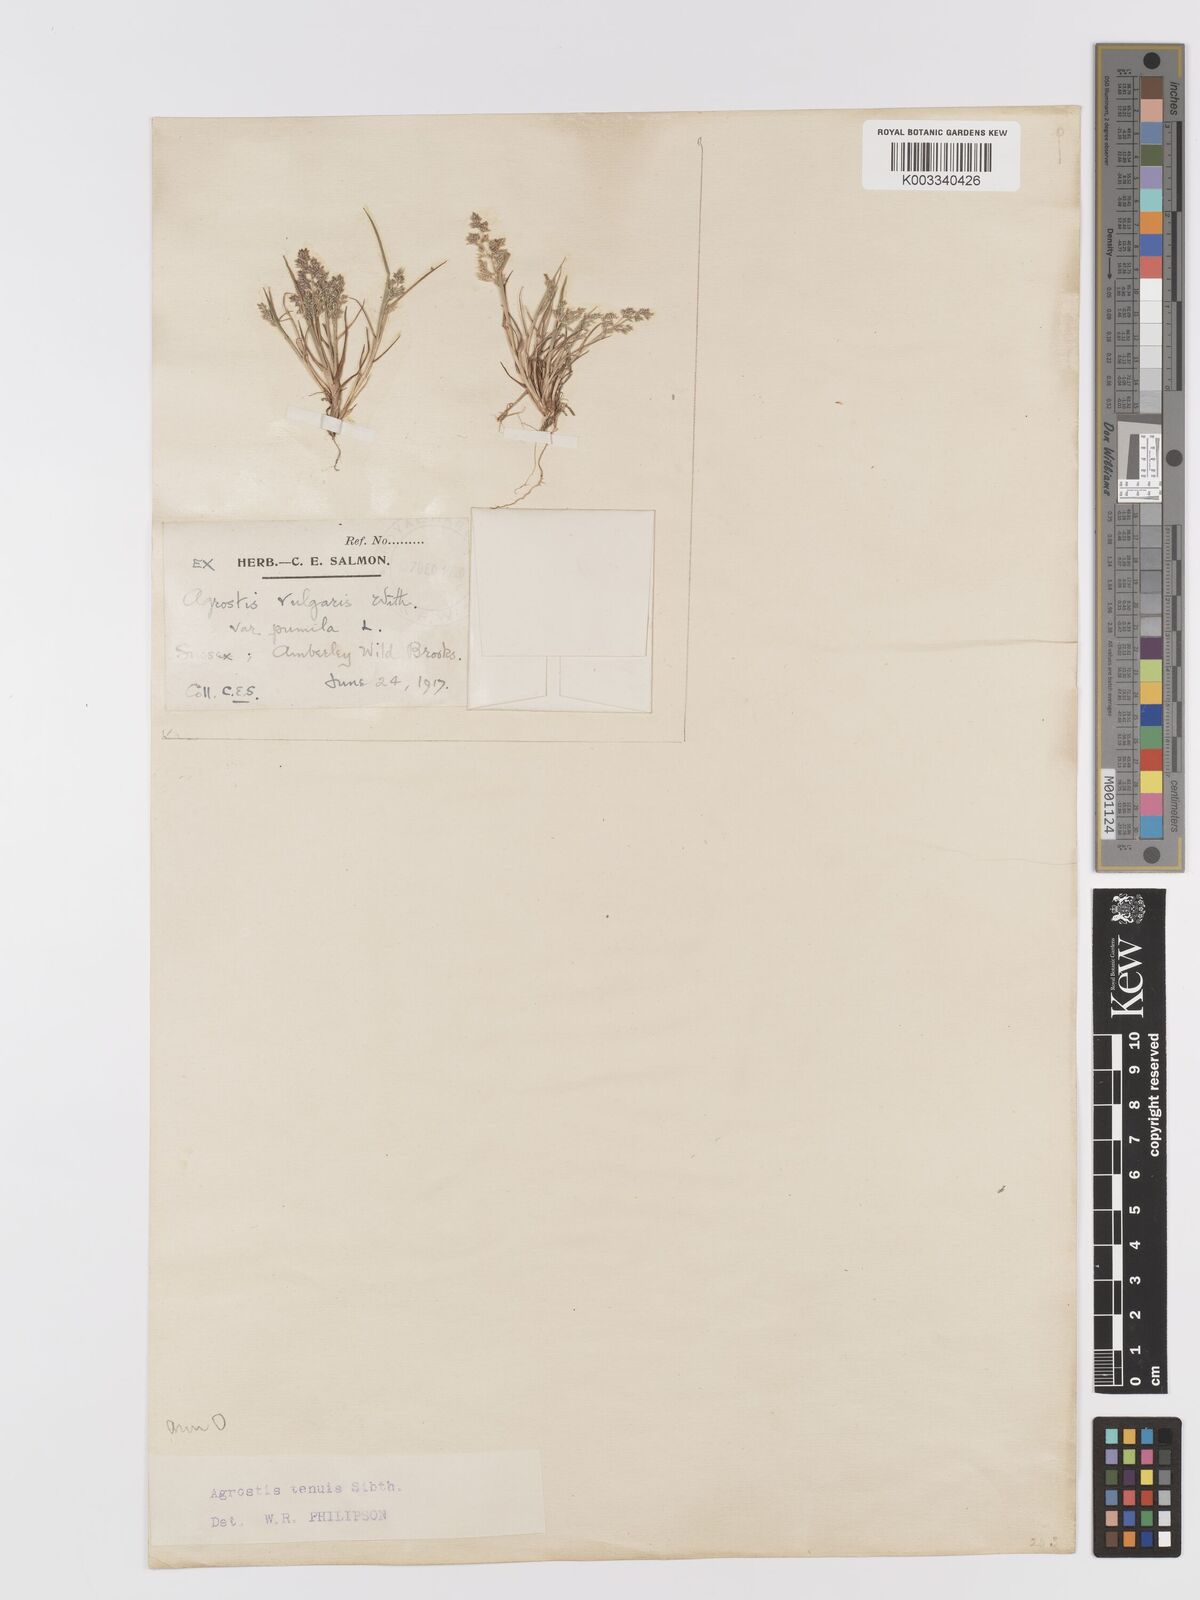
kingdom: Plantae
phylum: Tracheophyta
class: Liliopsida
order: Poales
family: Poaceae
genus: Agrostis
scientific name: Agrostis capillaris
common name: Colonial bentgrass
